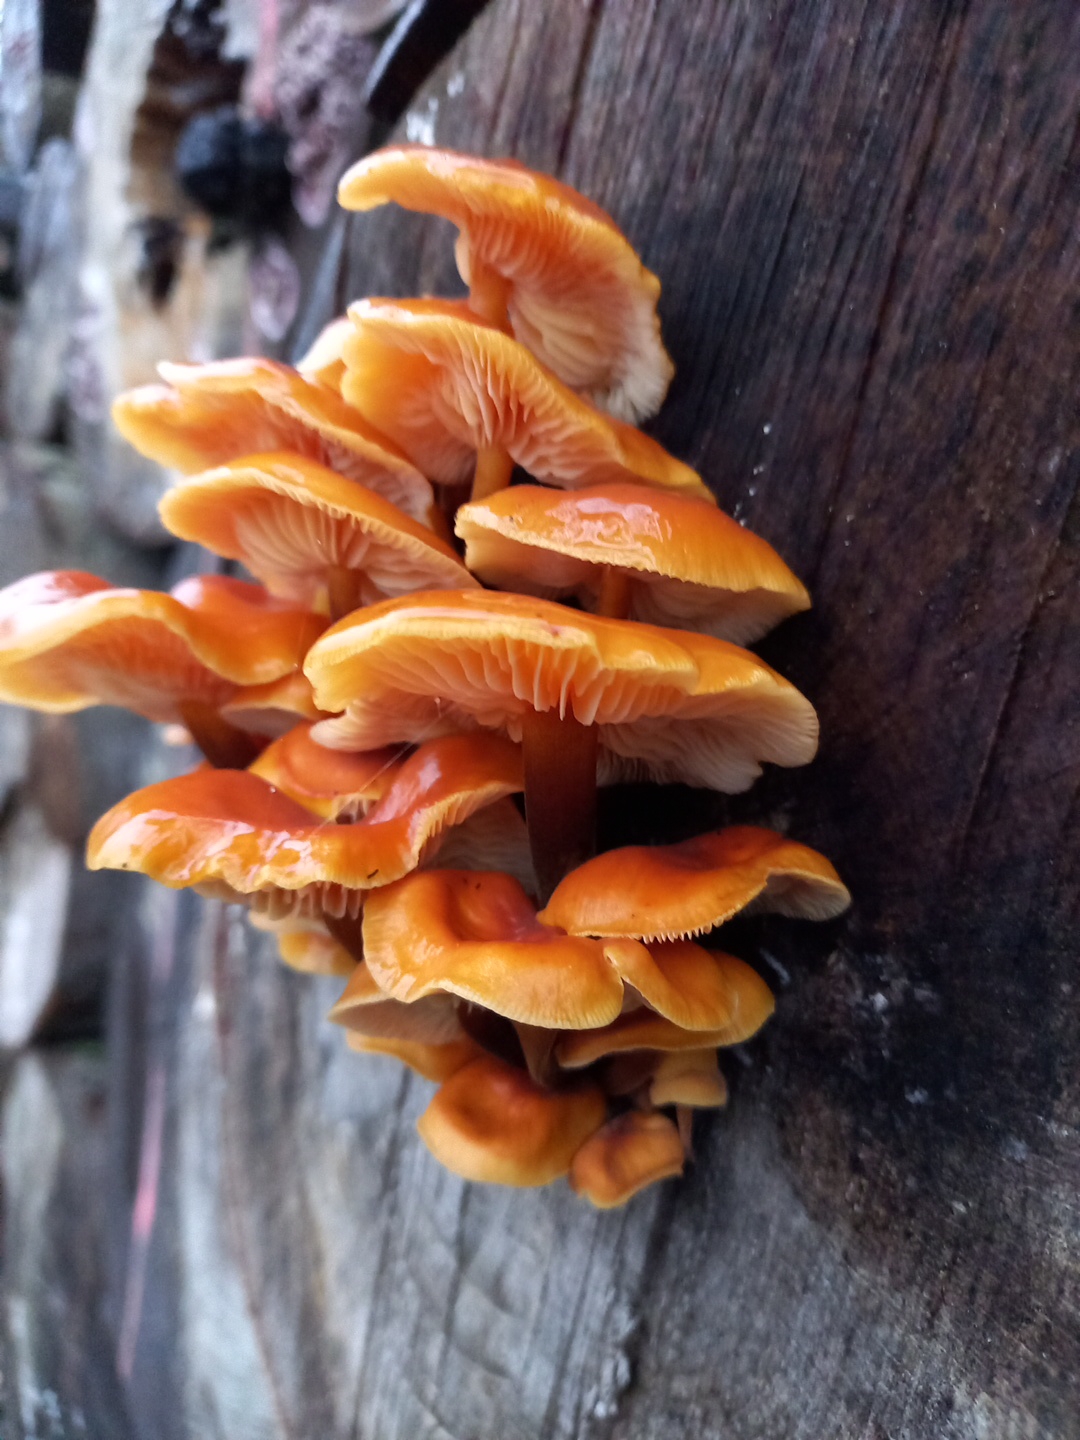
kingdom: Fungi
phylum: Basidiomycota
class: Agaricomycetes
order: Agaricales
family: Physalacriaceae
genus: Flammulina
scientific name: Flammulina velutipes
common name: gul fløjlsfod
